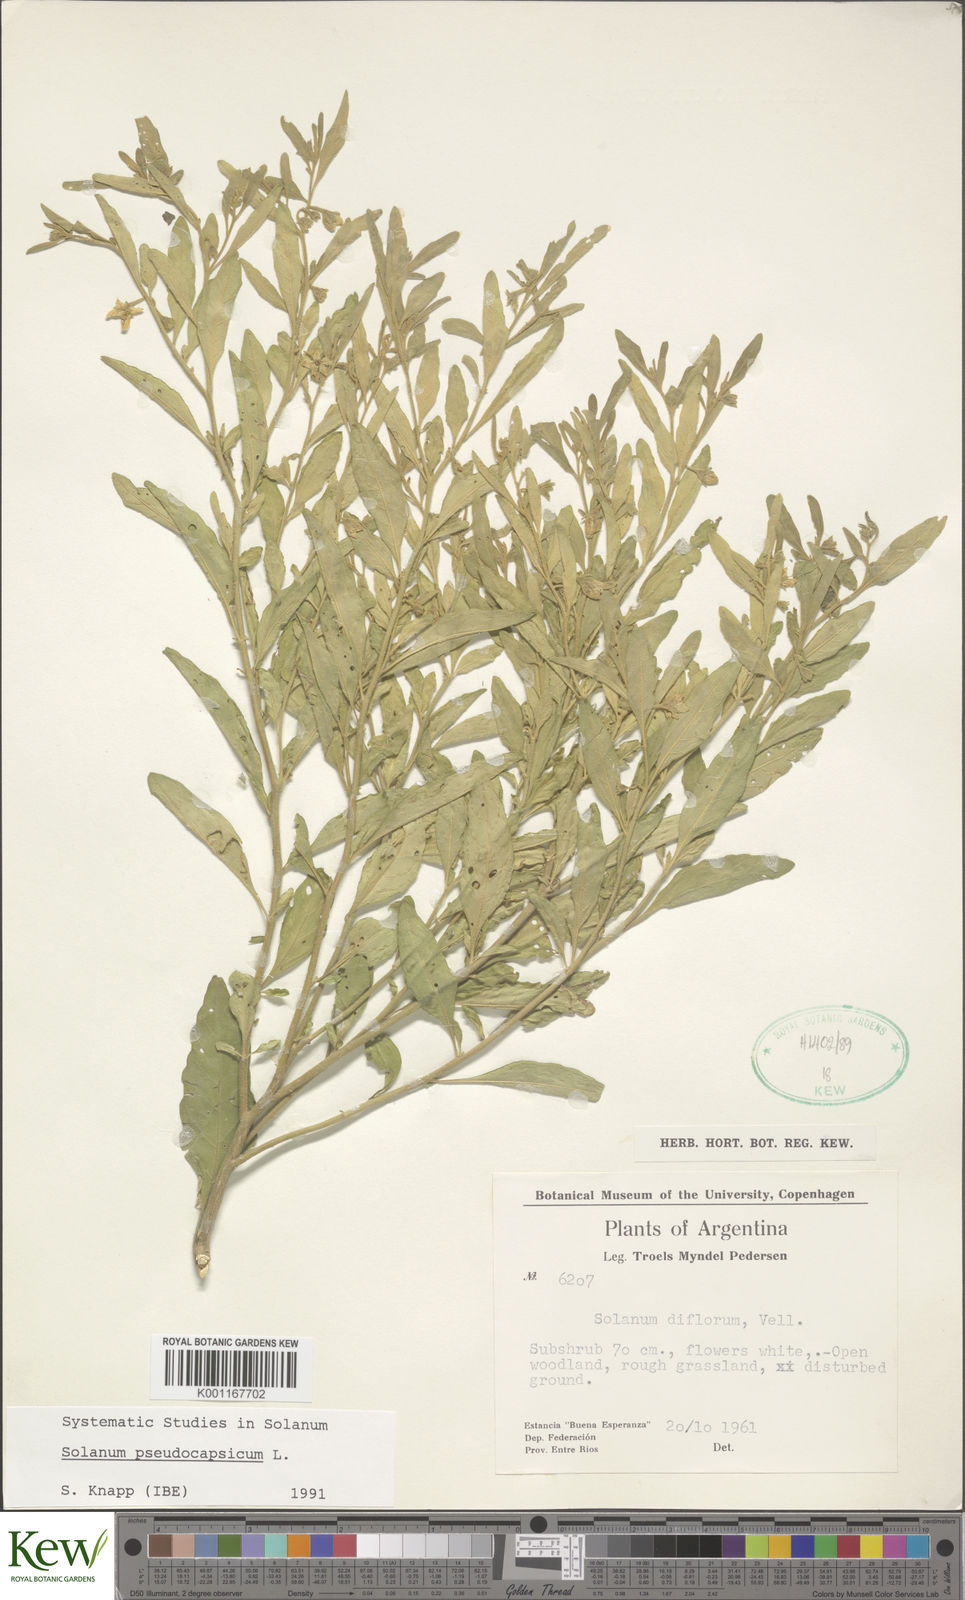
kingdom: Plantae
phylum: Tracheophyta
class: Magnoliopsida
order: Solanales
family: Solanaceae
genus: Solanum
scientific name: Solanum pseudocapsicum
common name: Jerusalem cherry
